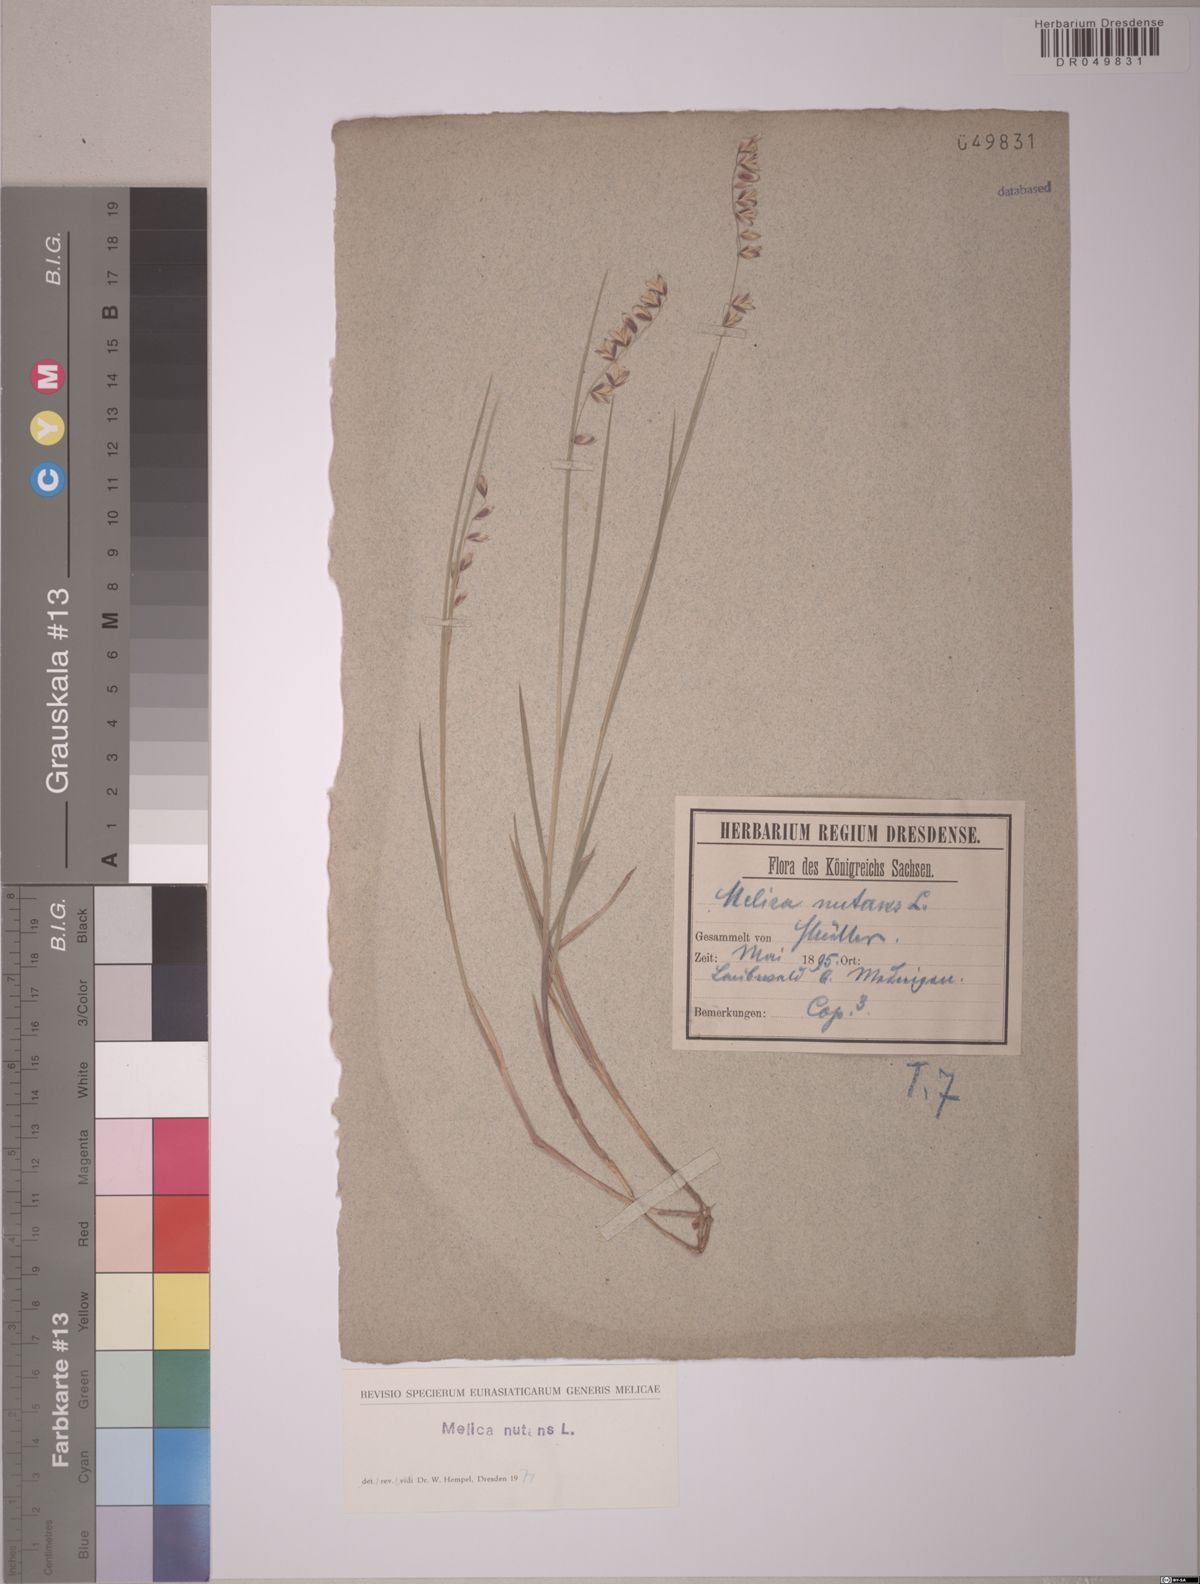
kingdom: Plantae
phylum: Tracheophyta
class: Liliopsida
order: Poales
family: Poaceae
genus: Melica
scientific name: Melica nutans
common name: Mountain melick
